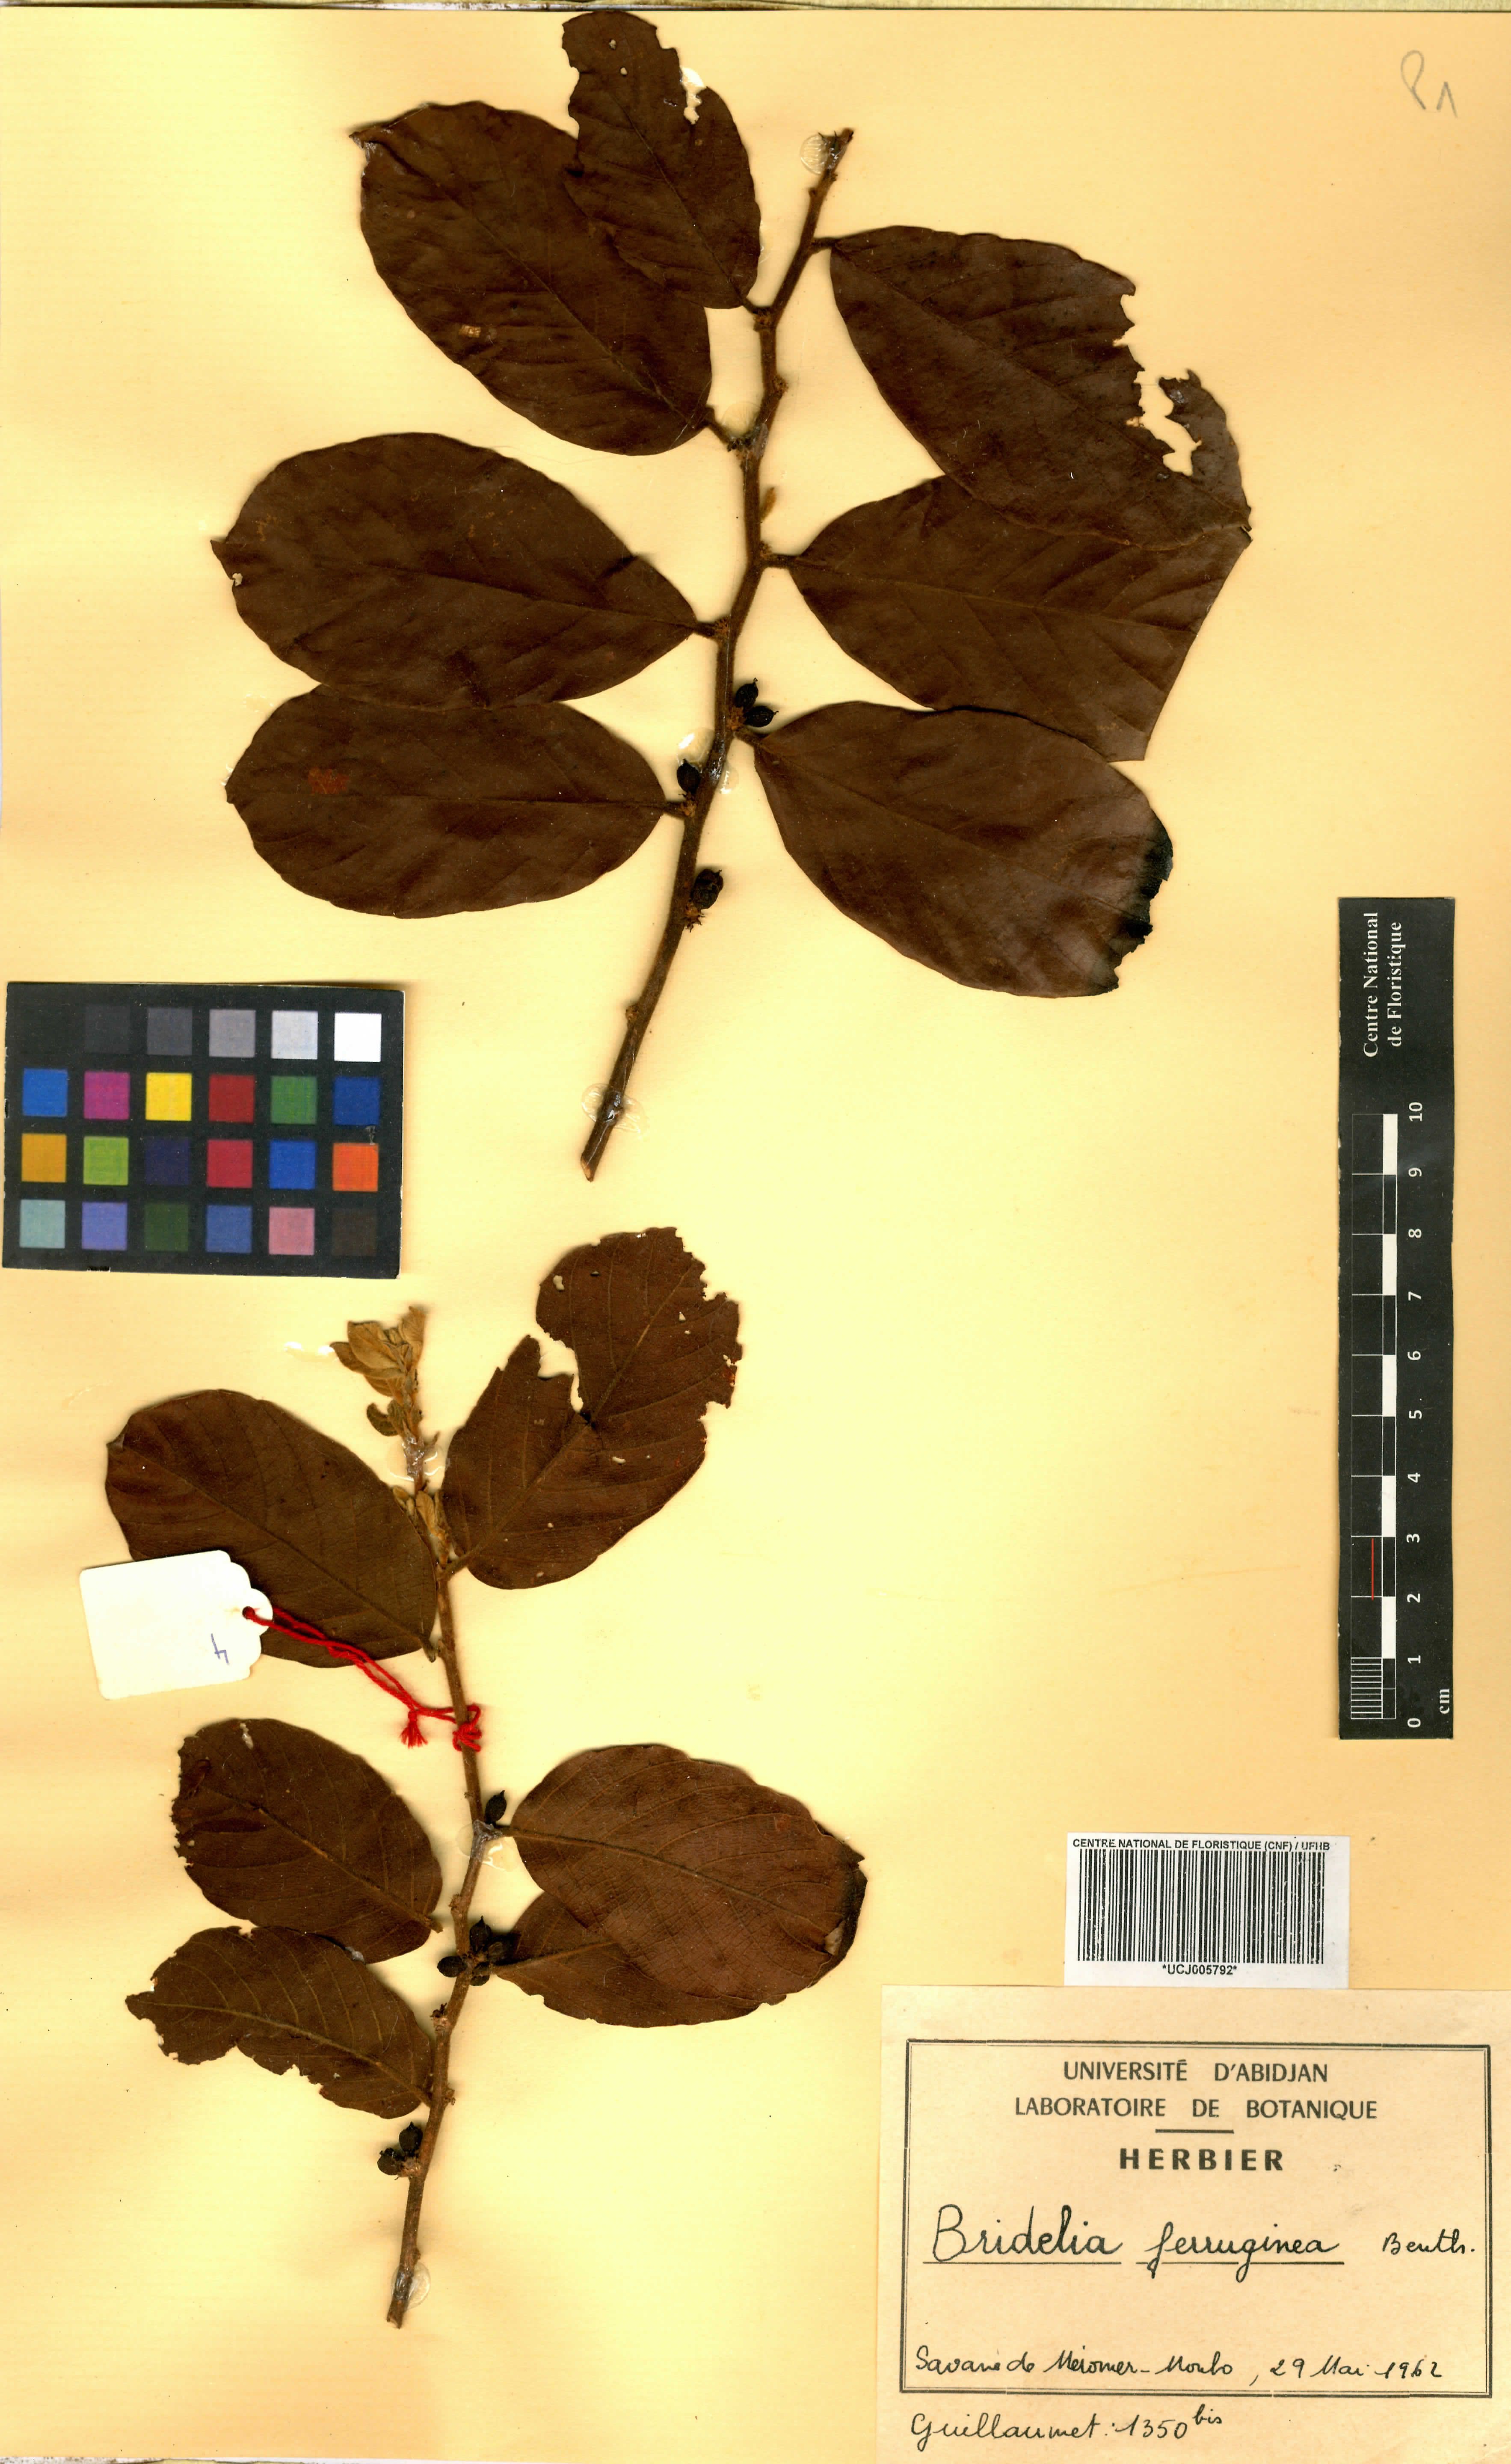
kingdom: Plantae
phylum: Tracheophyta
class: Magnoliopsida
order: Malpighiales
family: Phyllanthaceae
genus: Bridelia
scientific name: Bridelia ferruginea
